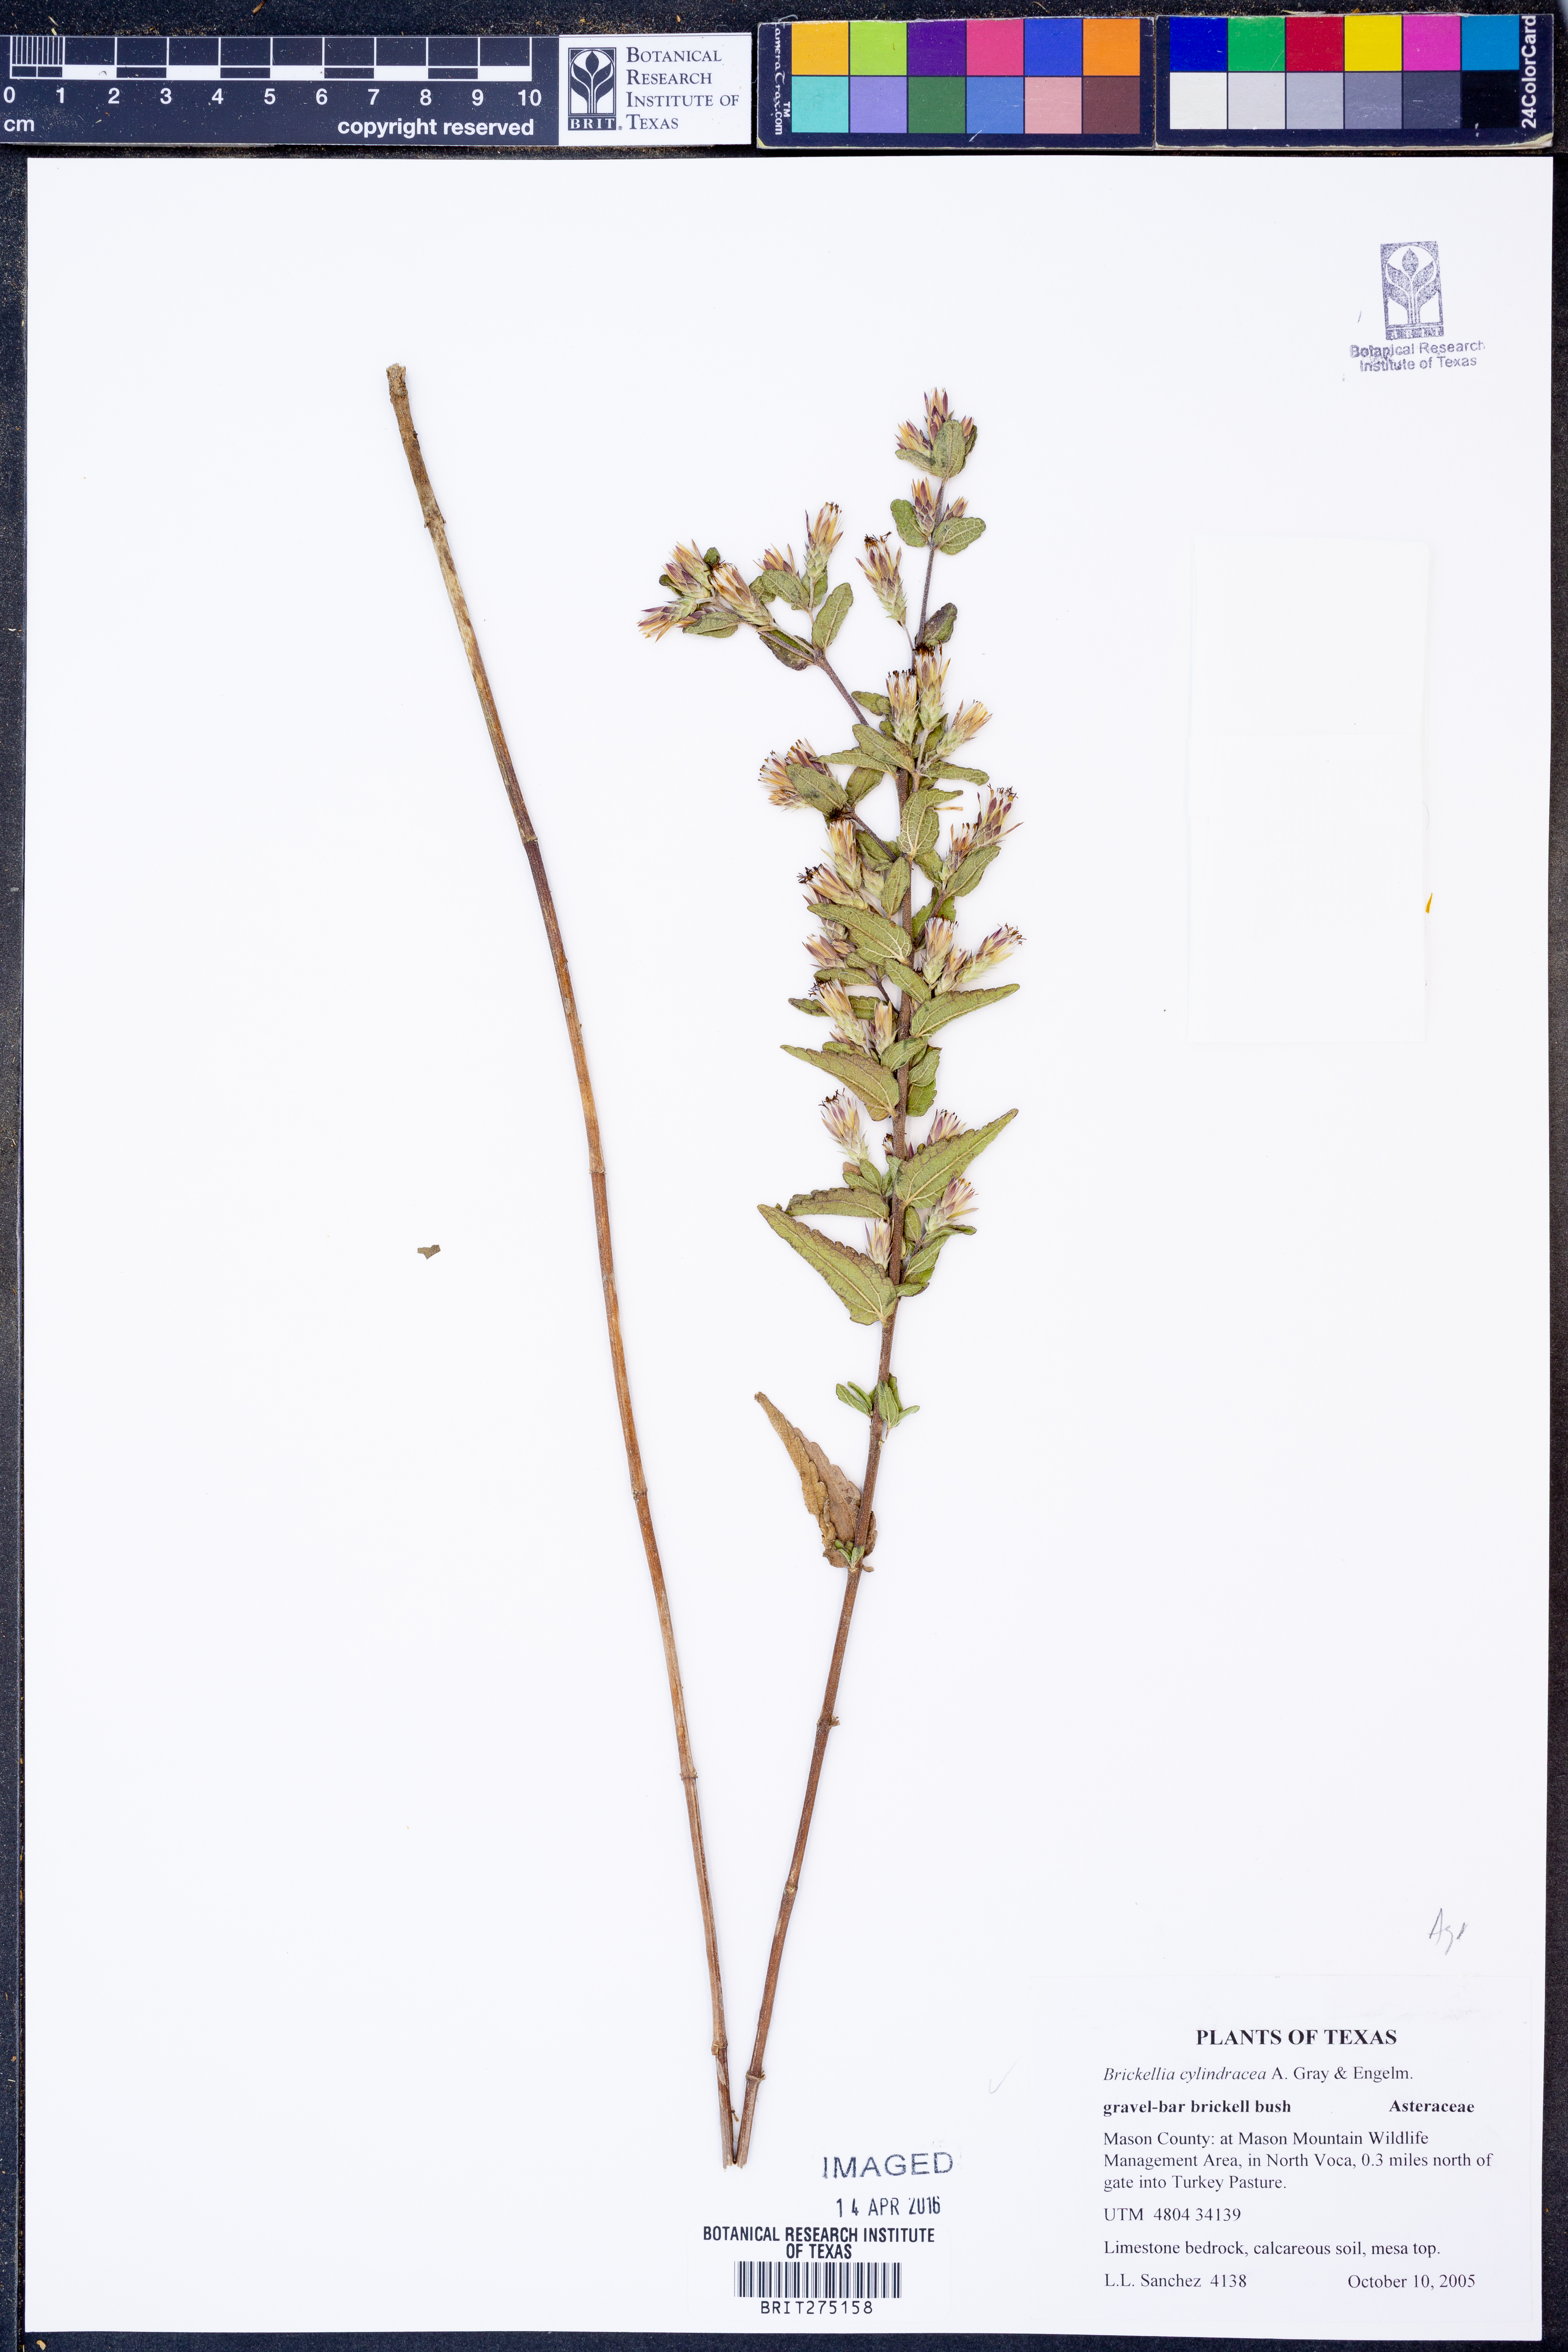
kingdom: Plantae
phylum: Tracheophyta
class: Magnoliopsida
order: Asterales
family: Asteraceae
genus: Brickellia
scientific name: Brickellia cylindracea
